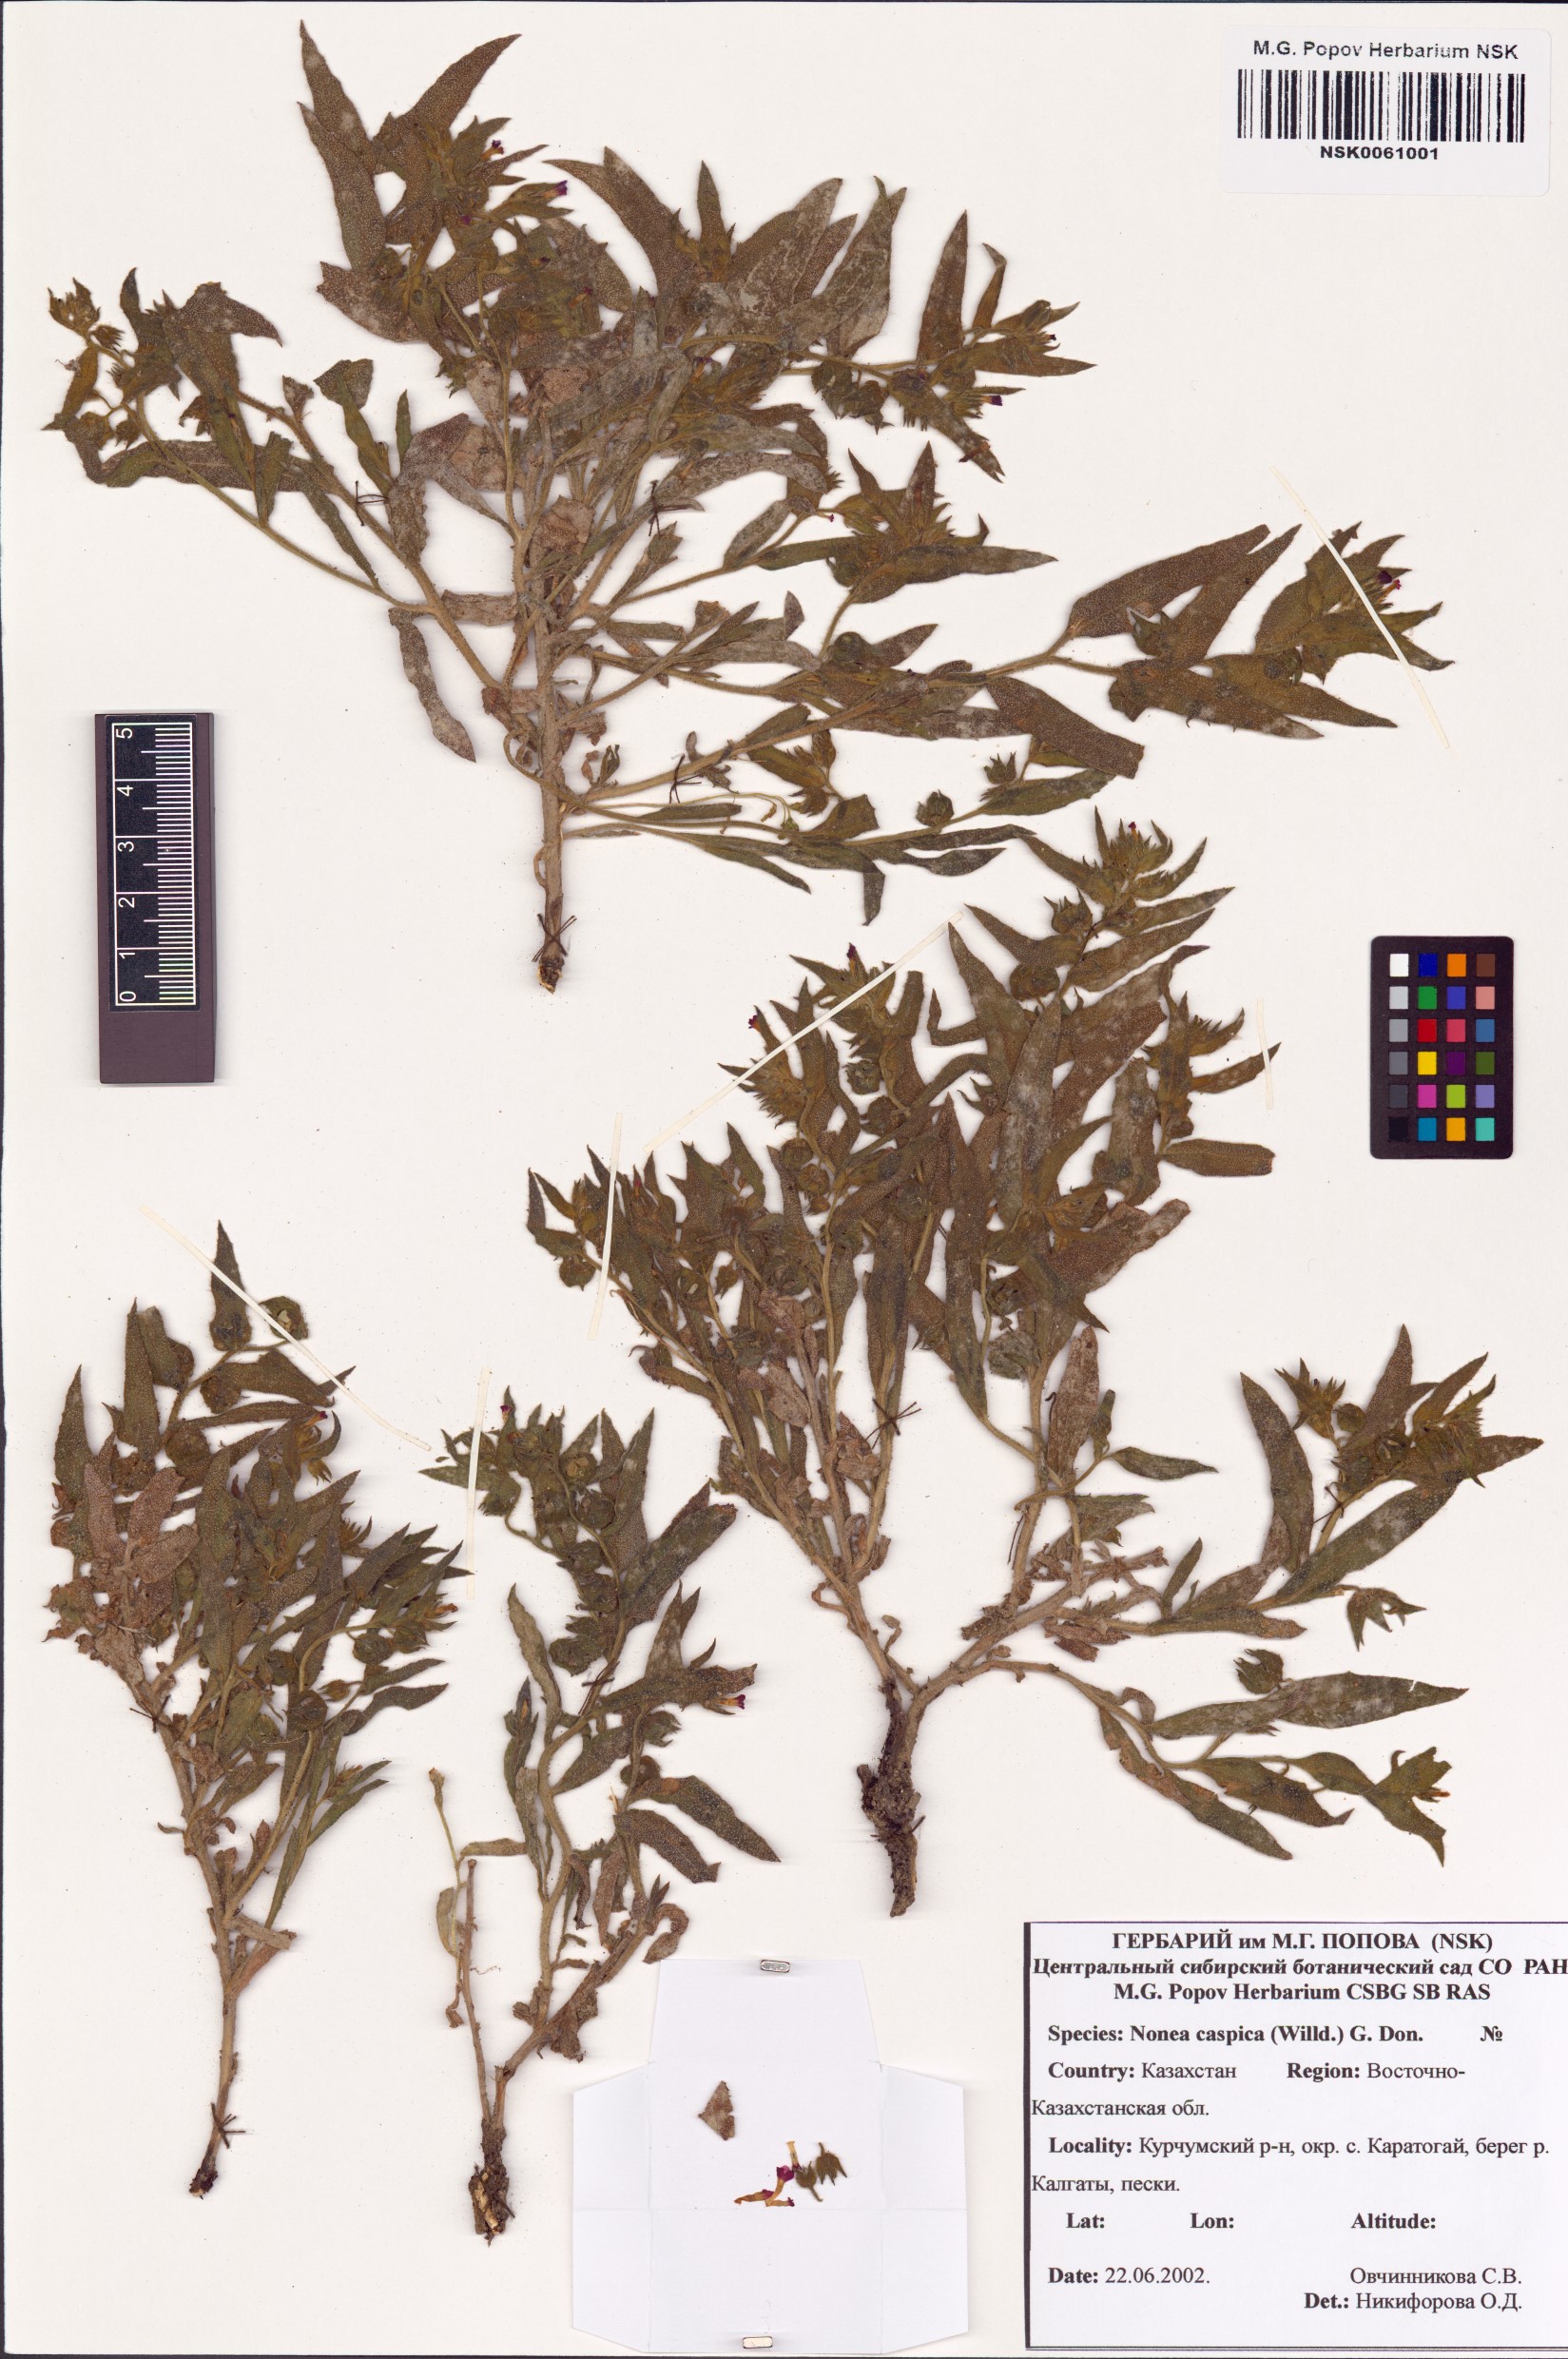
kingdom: Plantae
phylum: Tracheophyta
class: Magnoliopsida
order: Boraginales
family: Boraginaceae
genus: Nonea
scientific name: Nonea caspica
